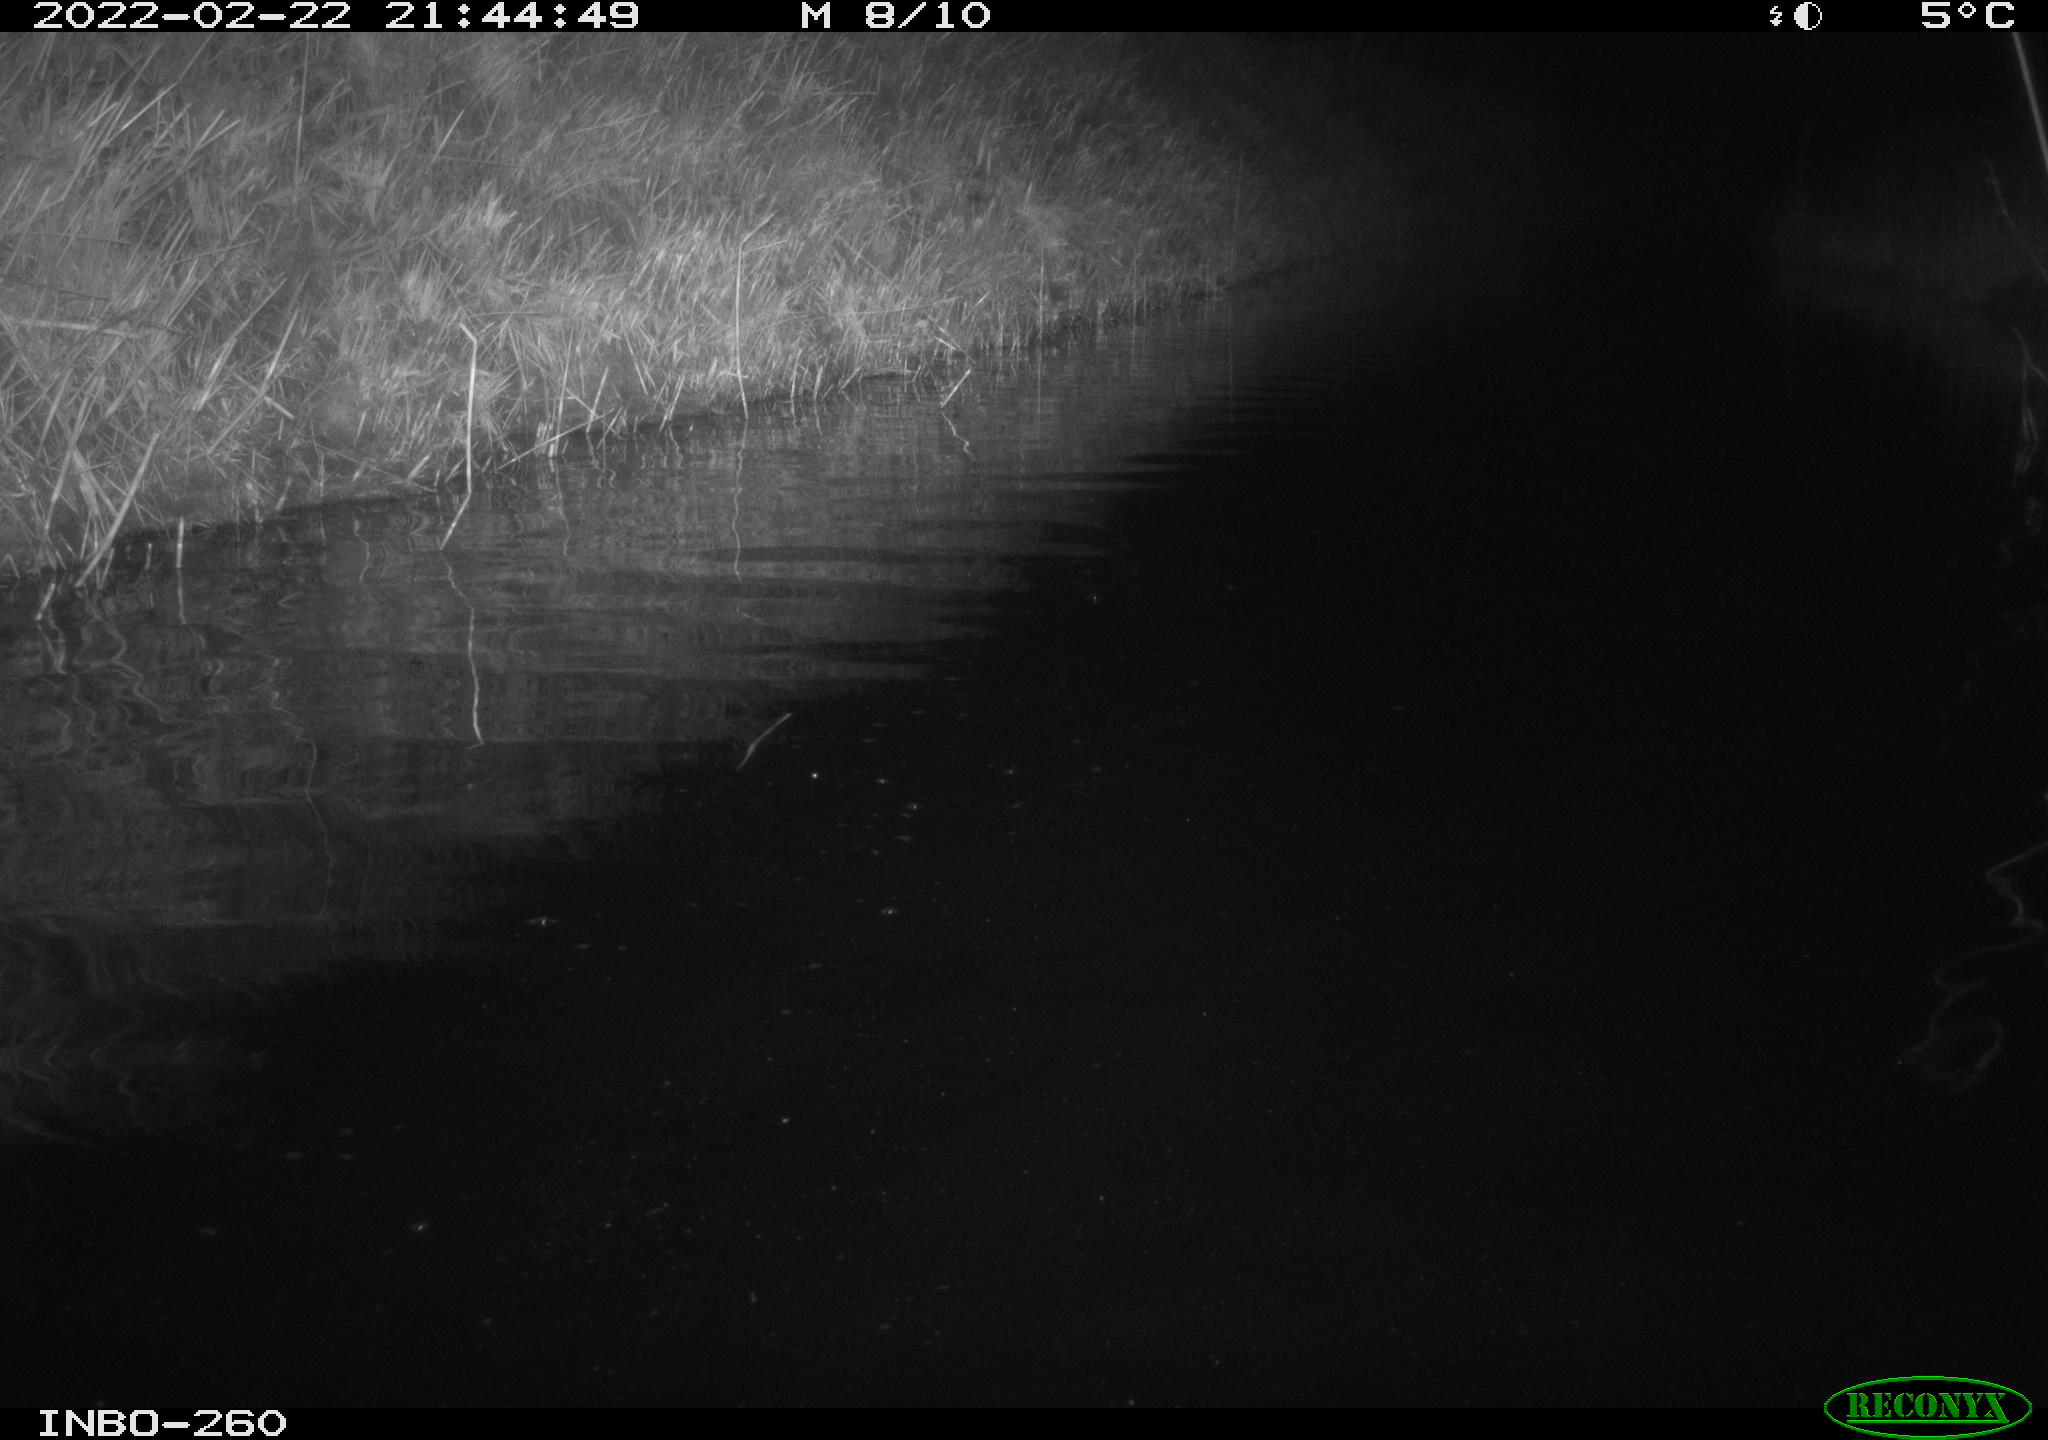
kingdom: Animalia
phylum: Chordata
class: Mammalia
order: Rodentia
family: Cricetidae
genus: Ondatra
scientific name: Ondatra zibethicus
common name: Muskrat
